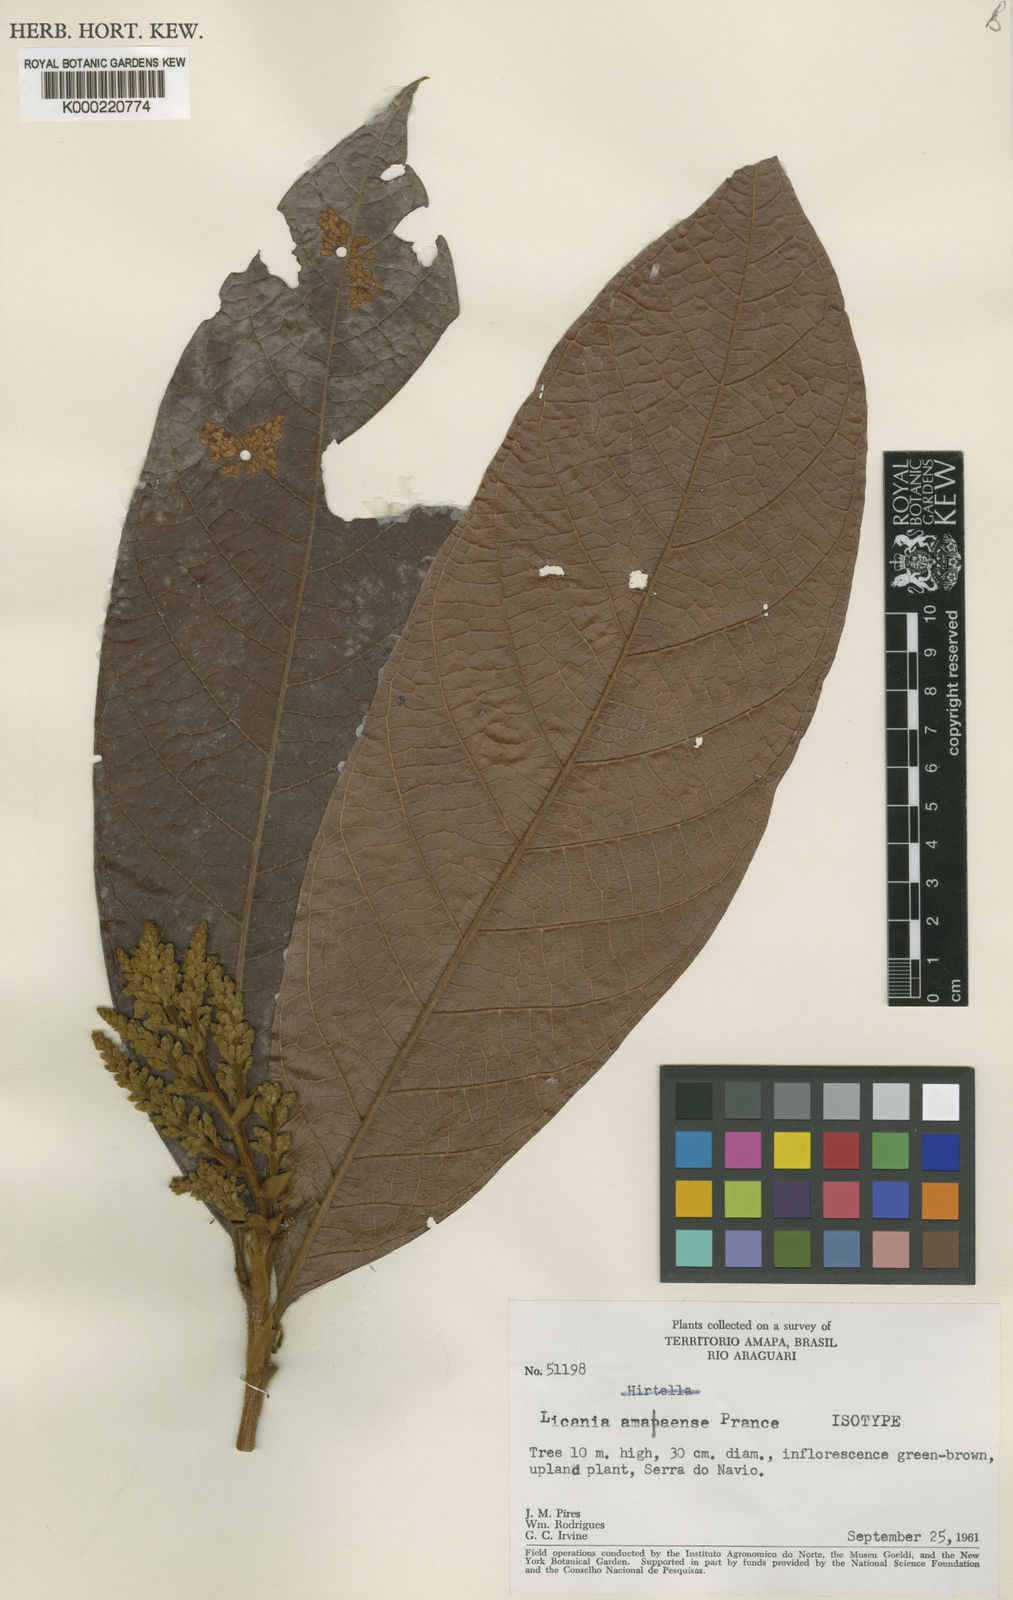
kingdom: Plantae
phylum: Tracheophyta
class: Magnoliopsida
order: Malpighiales
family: Chrysobalanaceae
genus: Hymenopus
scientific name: Hymenopus amapaensis
